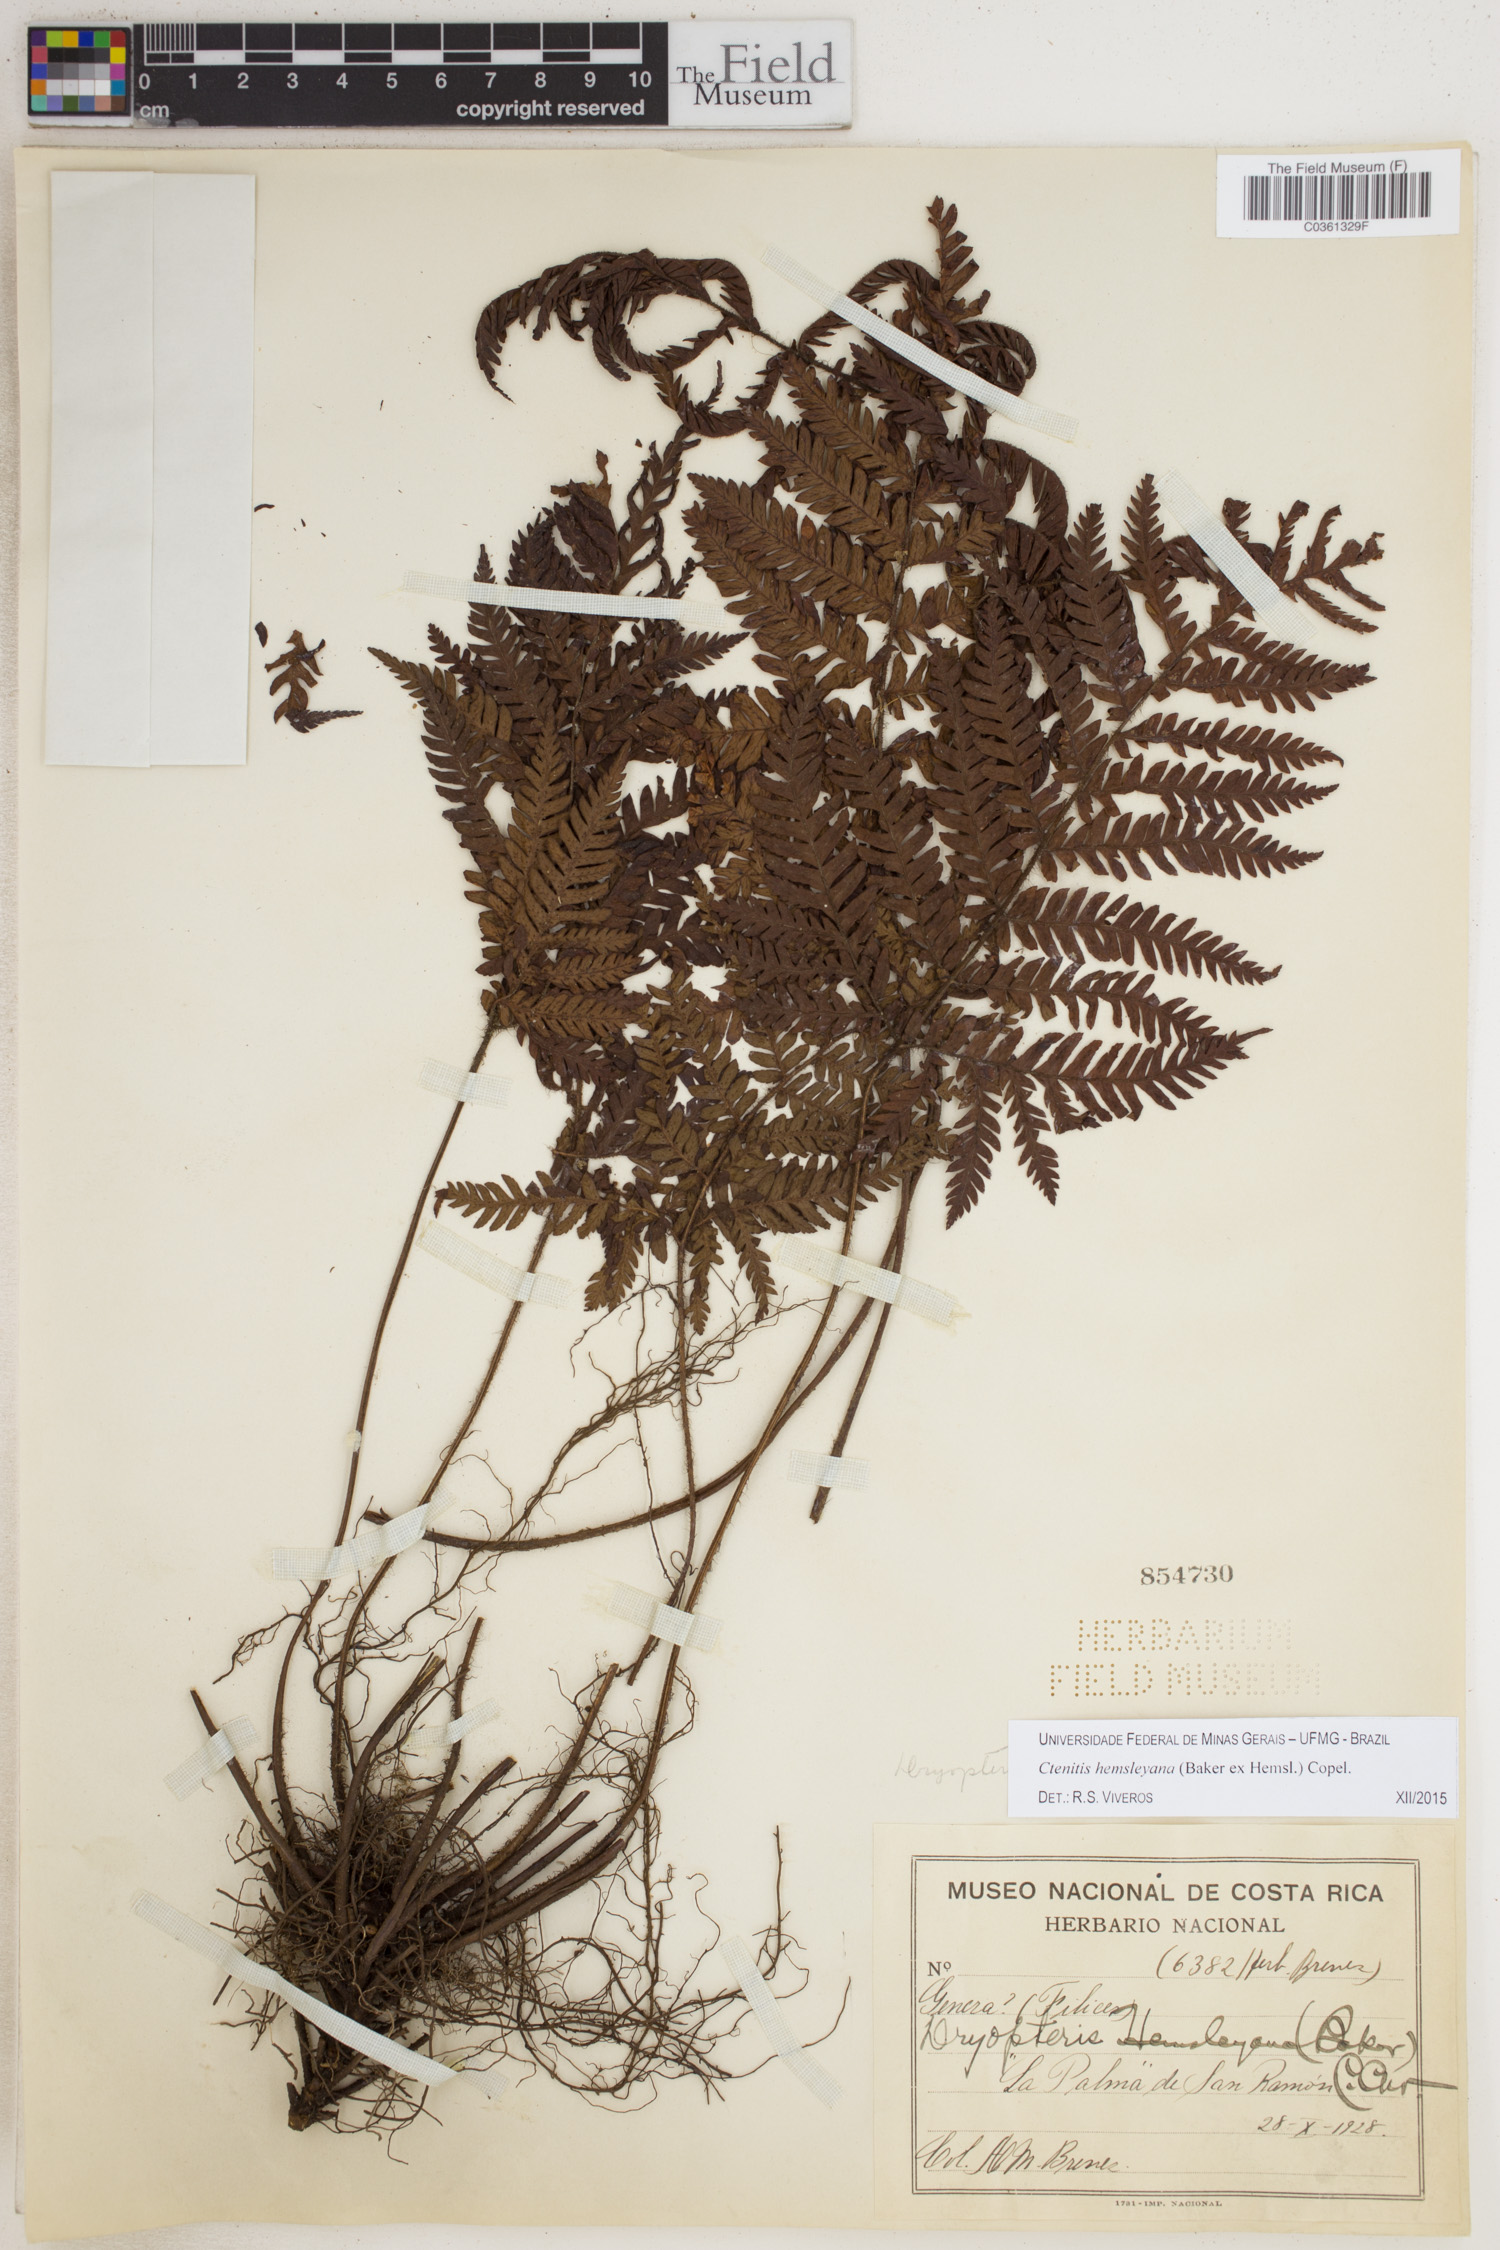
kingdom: Plantae
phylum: Tracheophyta
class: Polypodiopsida
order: Polypodiales
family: Dryopteridaceae
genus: Ctenitis
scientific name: Ctenitis hemsleyana
